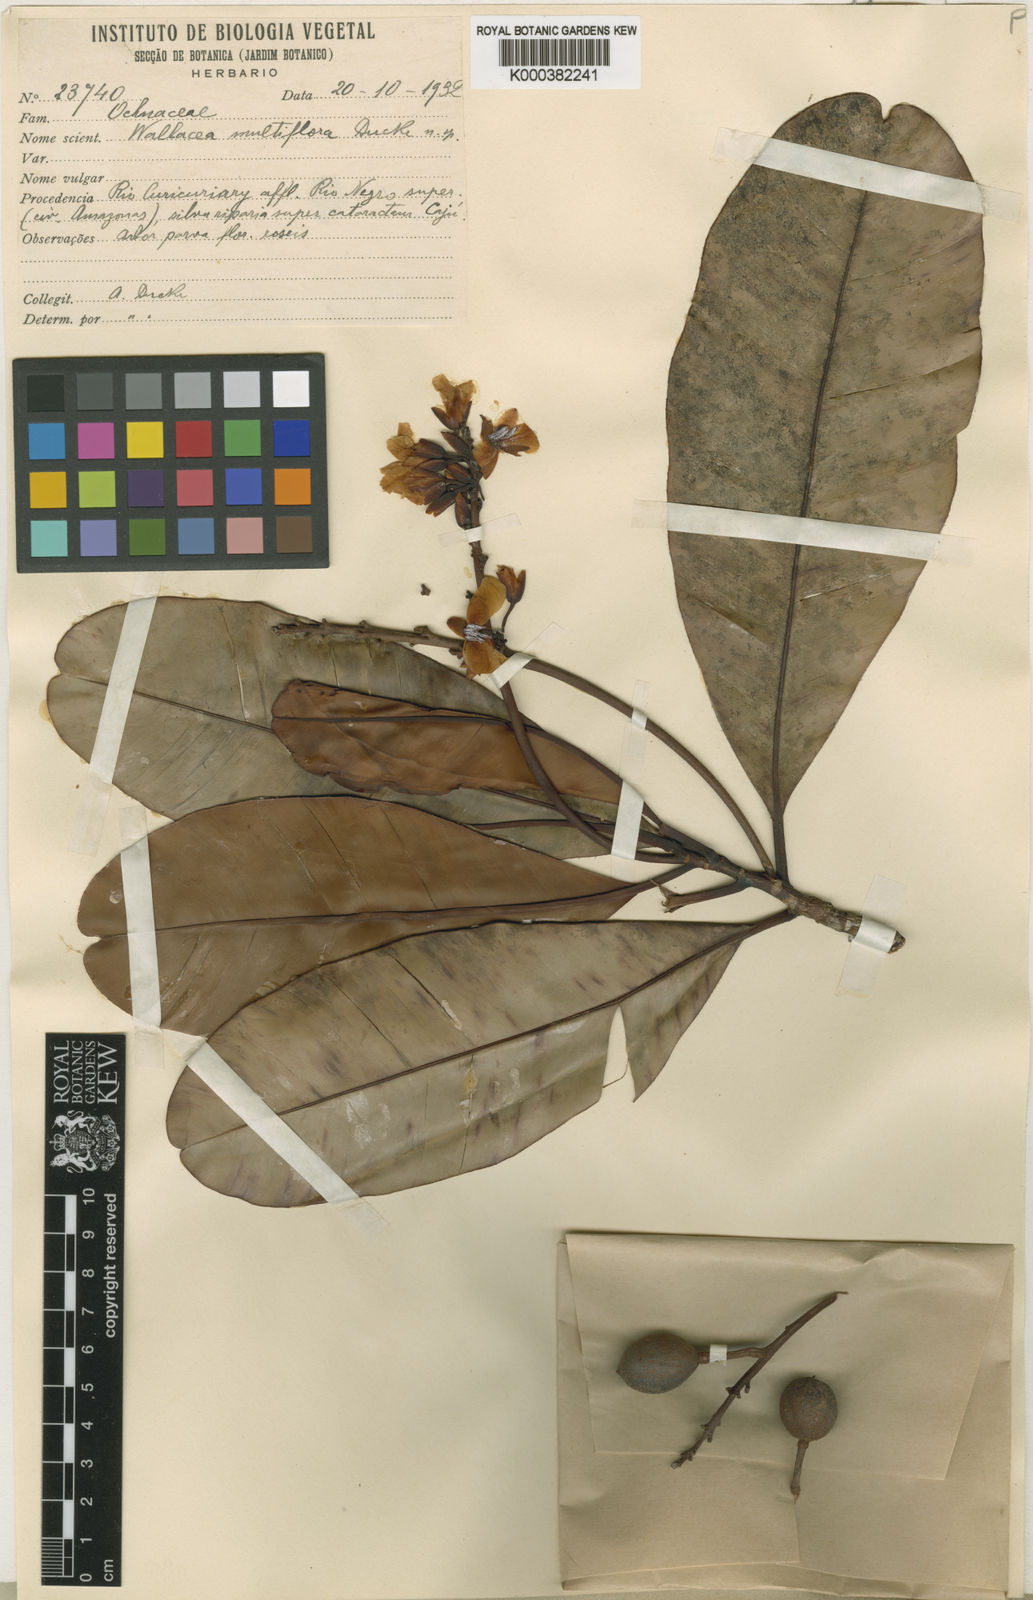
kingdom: Plantae
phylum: Tracheophyta
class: Magnoliopsida
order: Malpighiales
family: Ochnaceae
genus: Wallacea
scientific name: Wallacea multiflora
